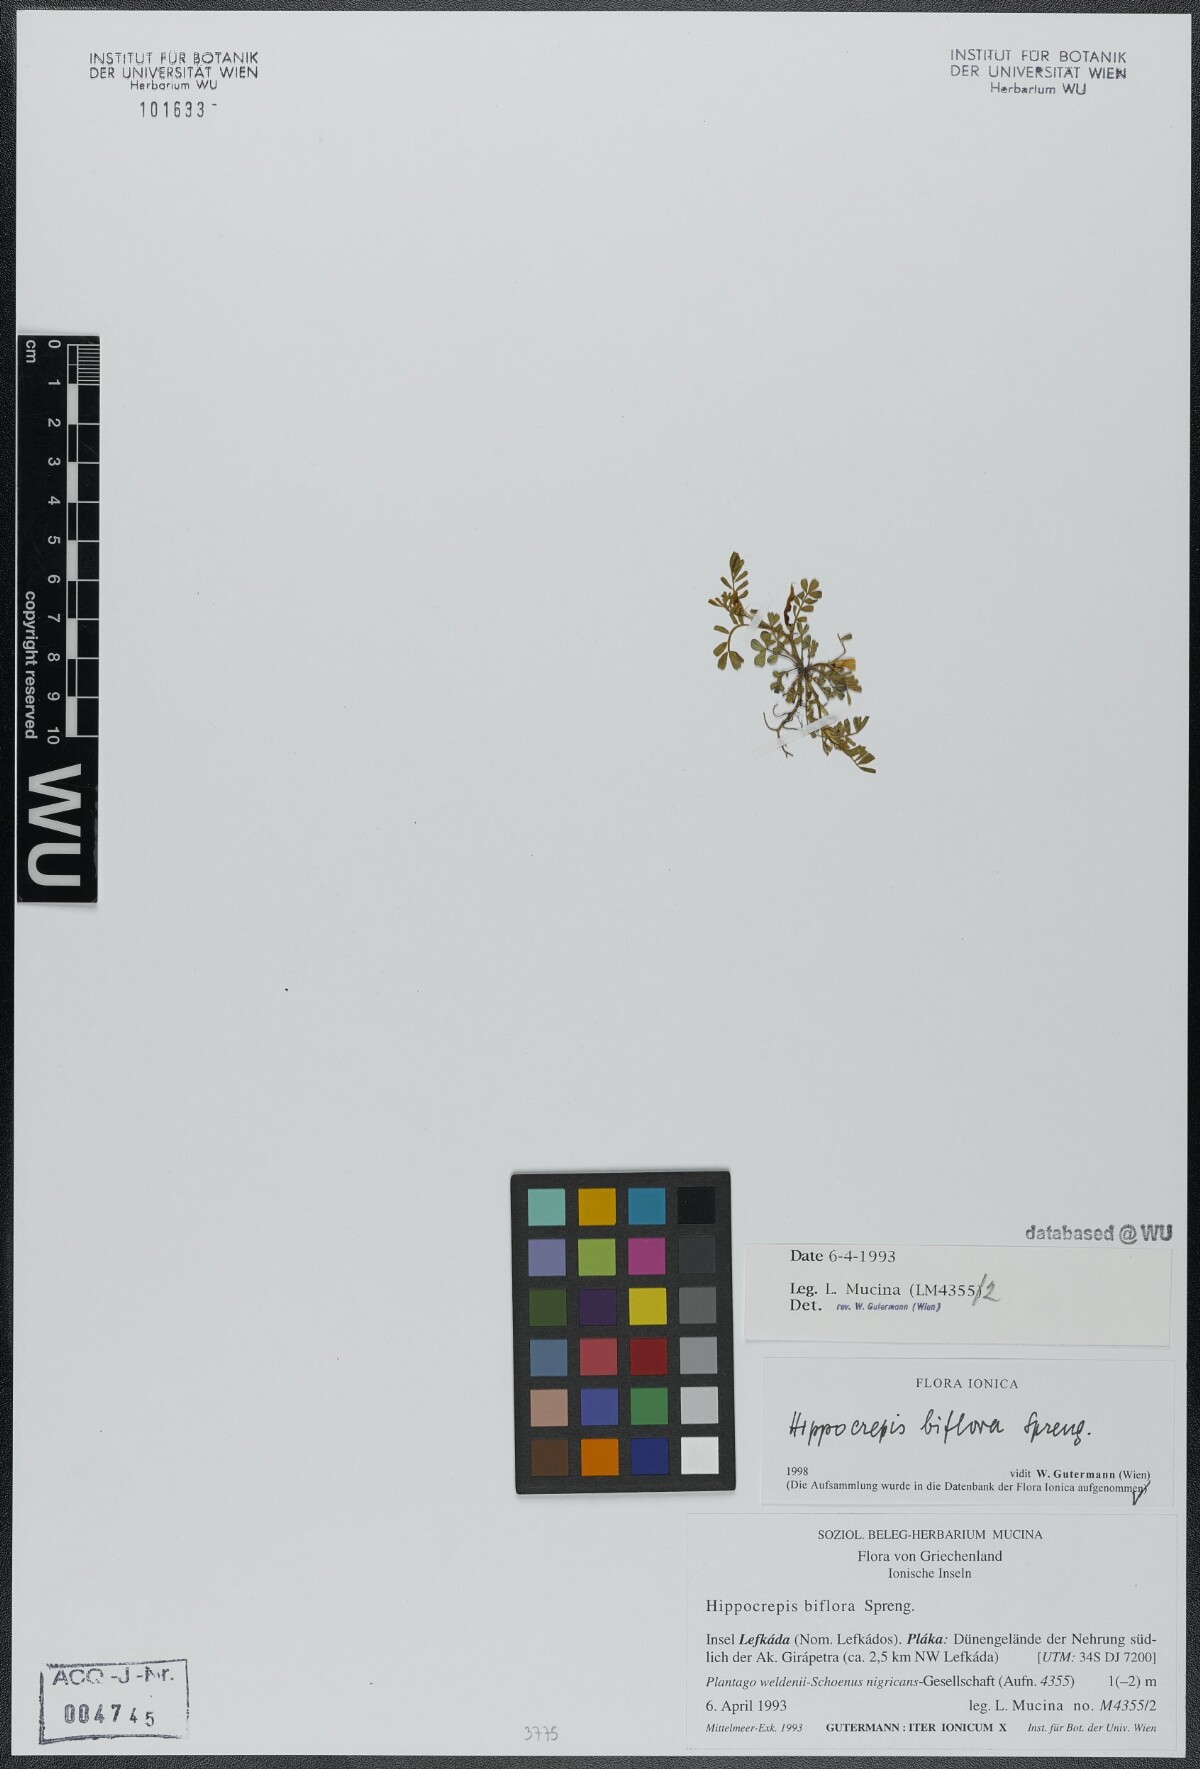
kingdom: Plantae
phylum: Tracheophyta
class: Magnoliopsida
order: Fabales
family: Fabaceae
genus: Hippocrepis
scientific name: Hippocrepis biflora
